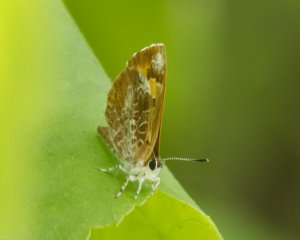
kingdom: Animalia
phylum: Arthropoda
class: Insecta
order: Lepidoptera
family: Lycaenidae
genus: Feniseca
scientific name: Feniseca tarquinius
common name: Harvester
